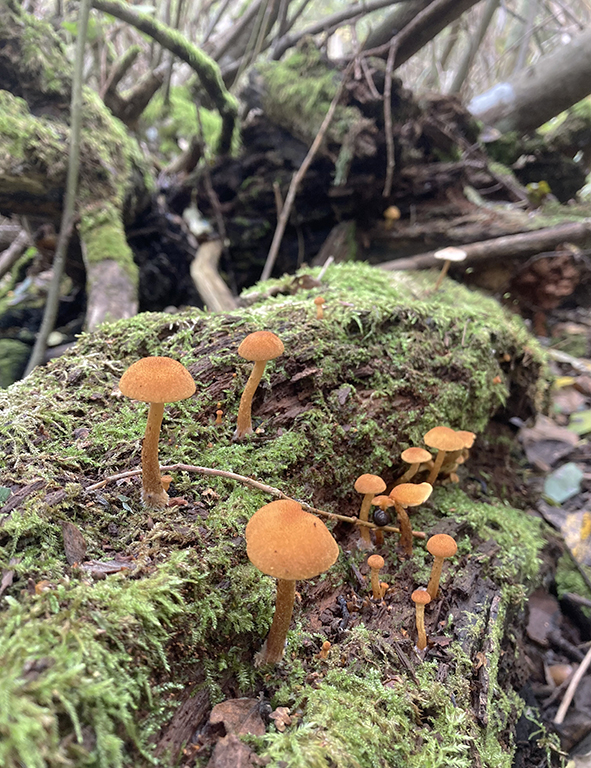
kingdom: Fungi
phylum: Basidiomycota
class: Agaricomycetes
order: Agaricales
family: Tubariaceae
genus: Flammulaster
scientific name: Flammulaster limulatus
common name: gylden grynskælhat
